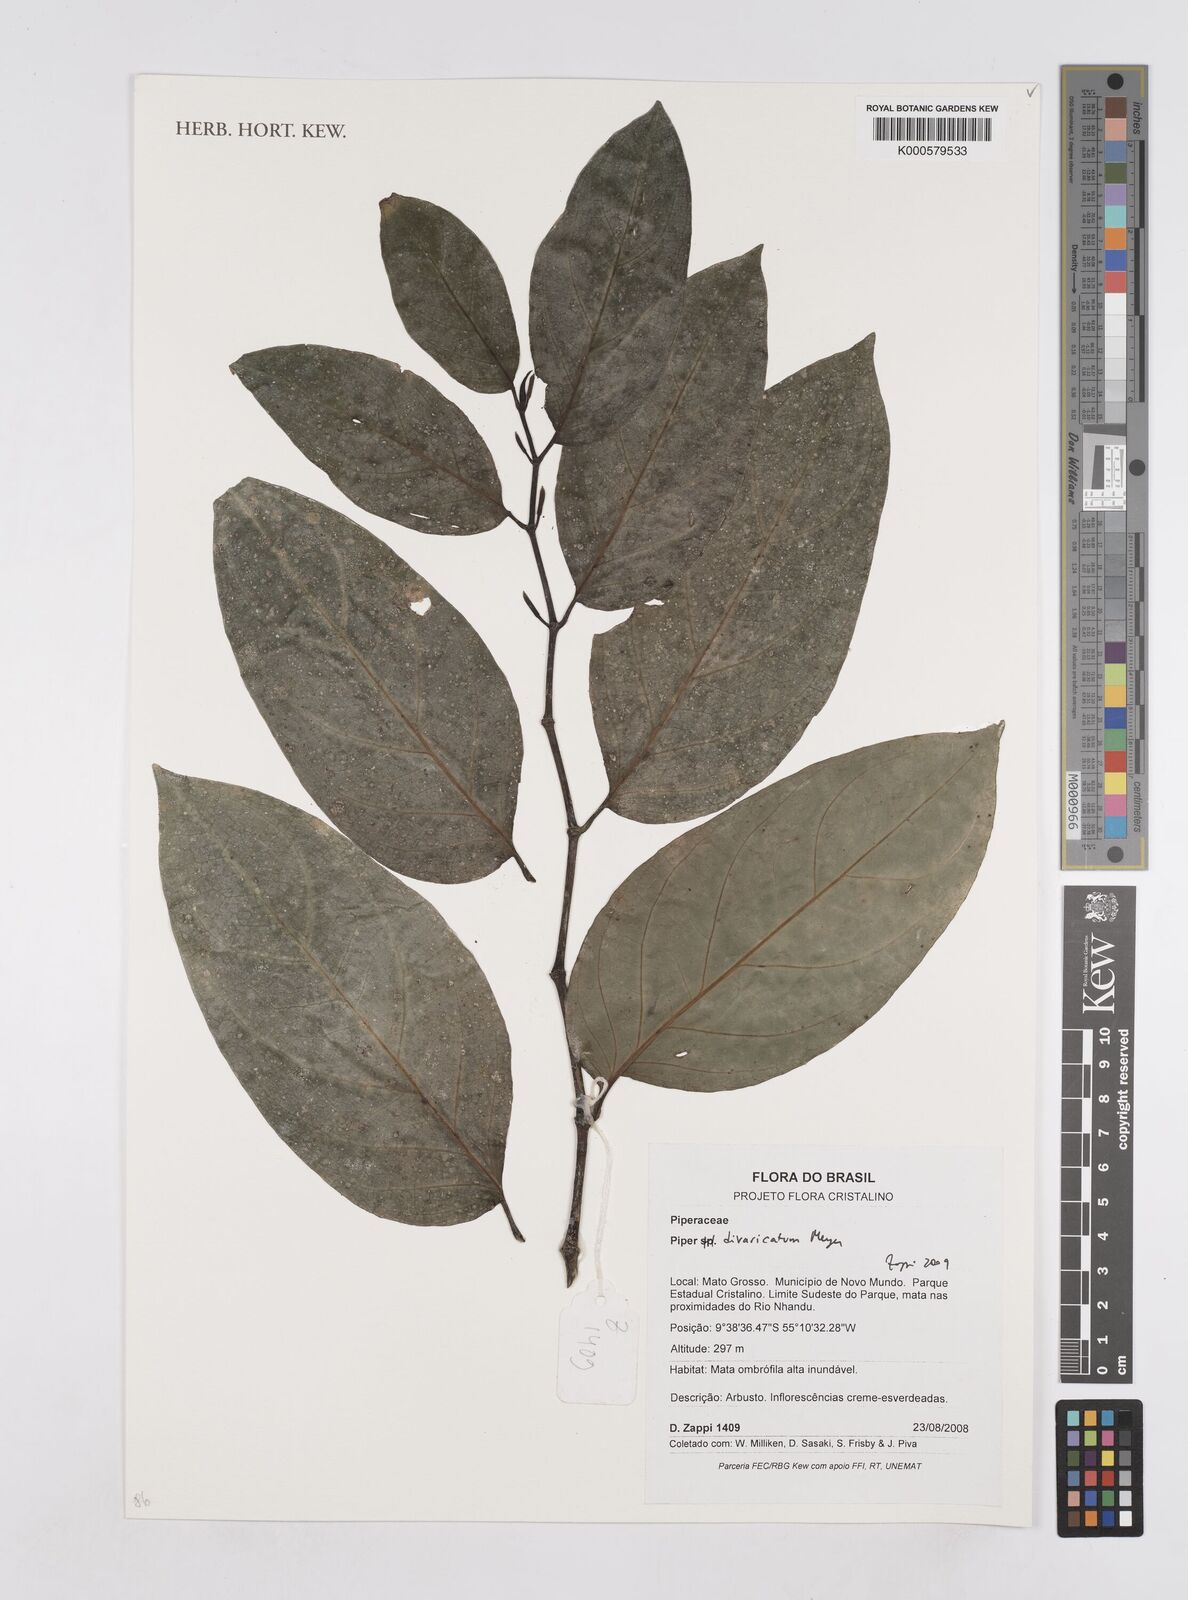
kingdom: Plantae
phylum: Tracheophyta
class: Magnoliopsida
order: Piperales
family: Piperaceae
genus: Piper
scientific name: Piper divaricatum
